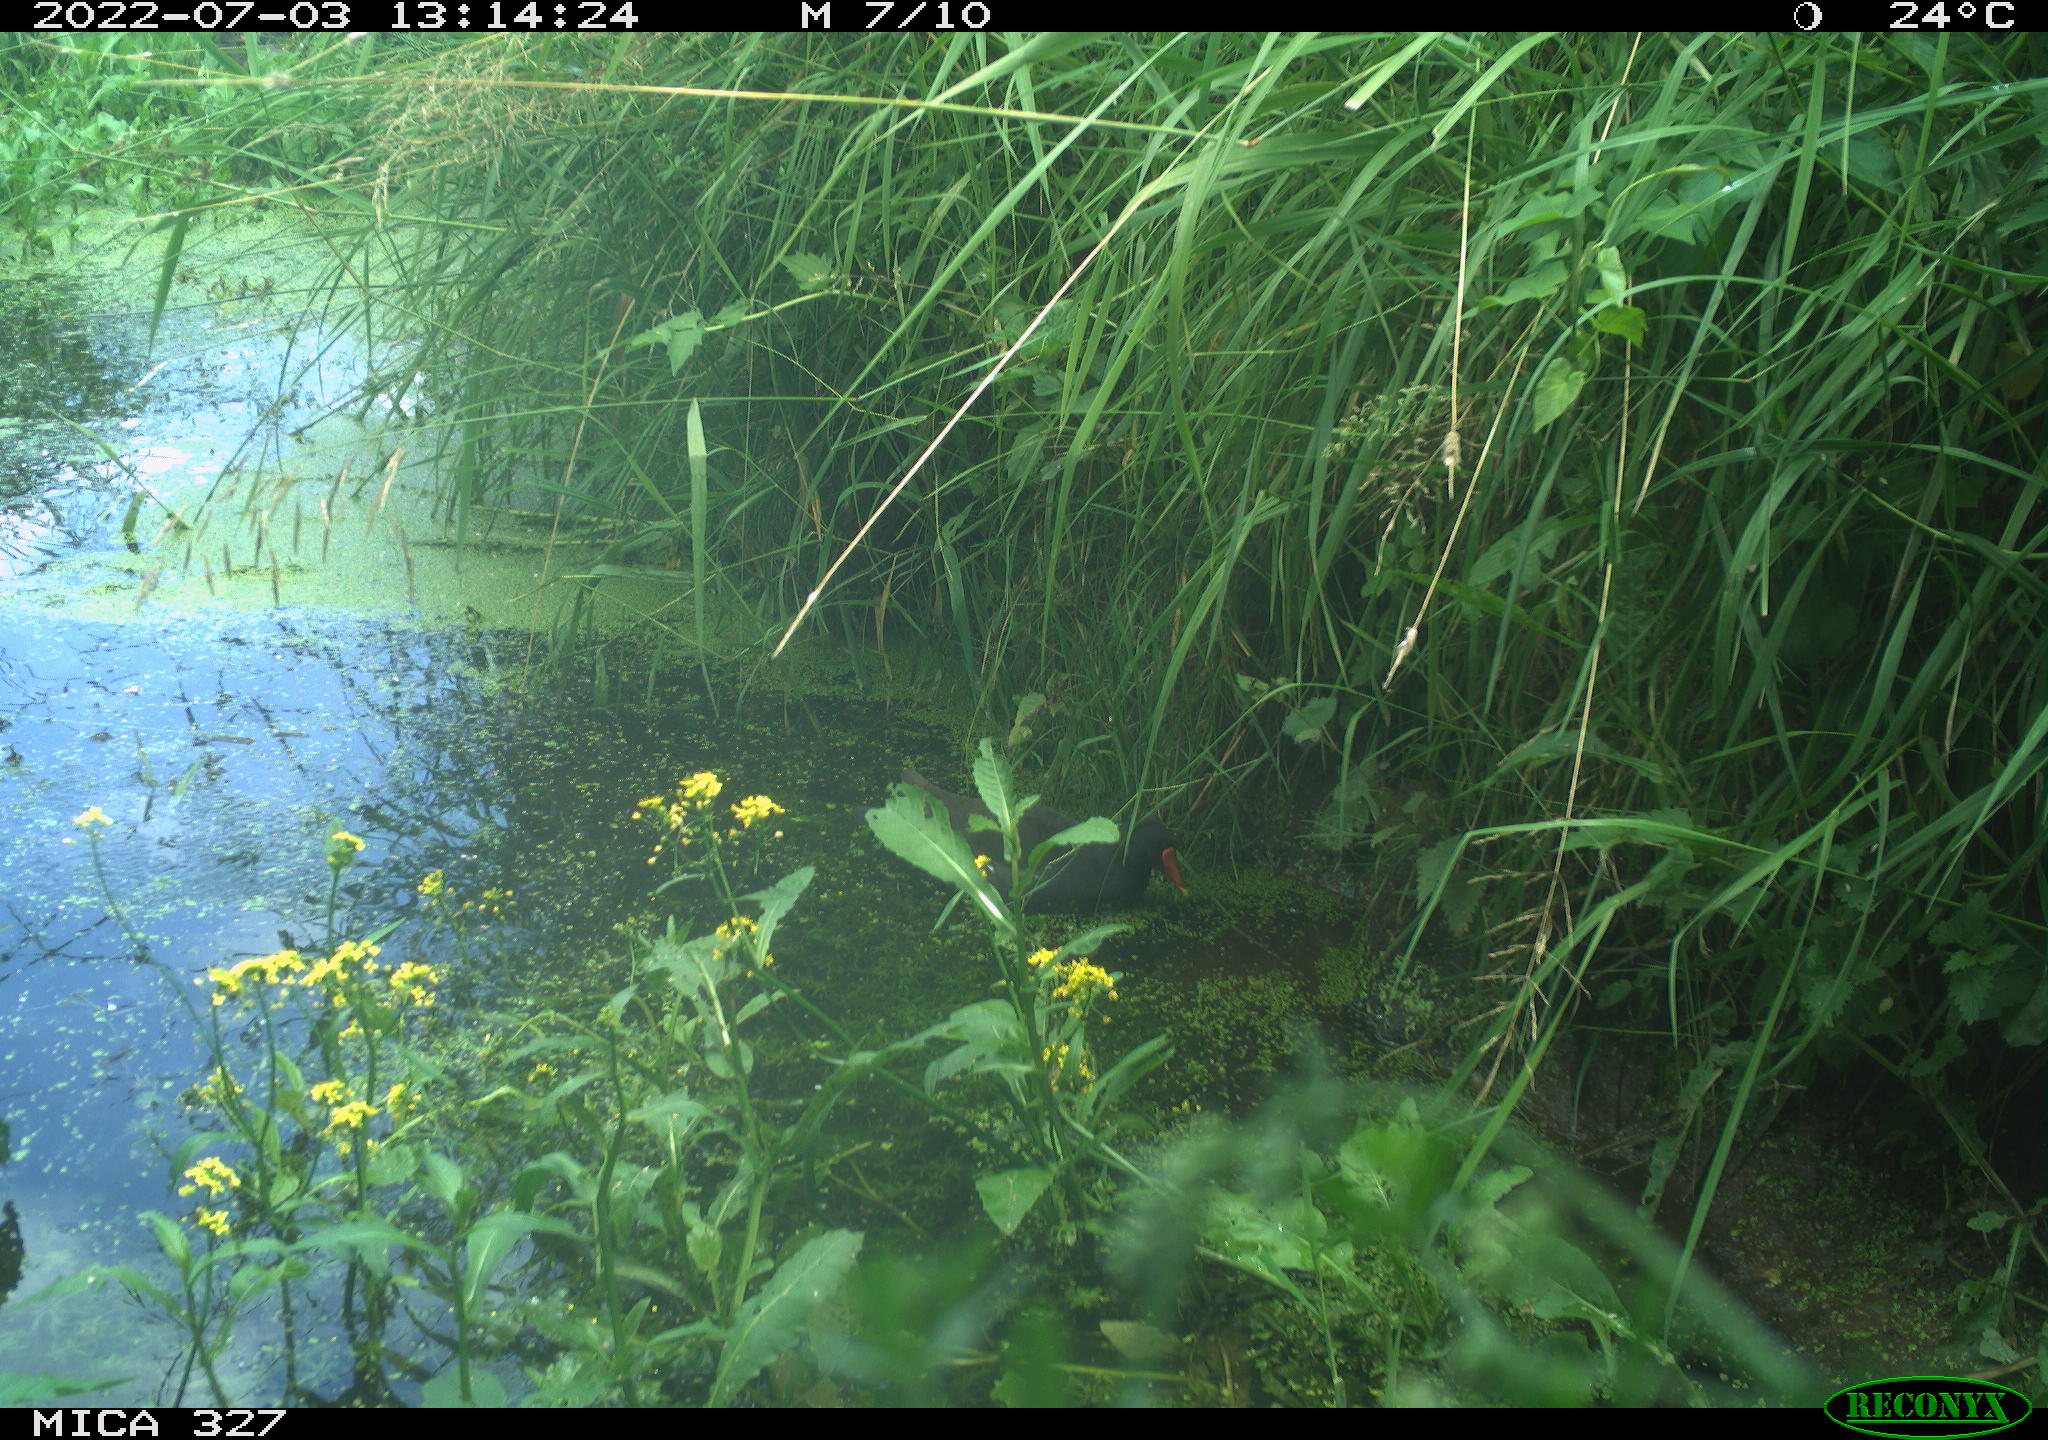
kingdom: Animalia
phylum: Chordata
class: Aves
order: Gruiformes
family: Rallidae
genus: Gallinula
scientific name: Gallinula chloropus
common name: Common moorhen
